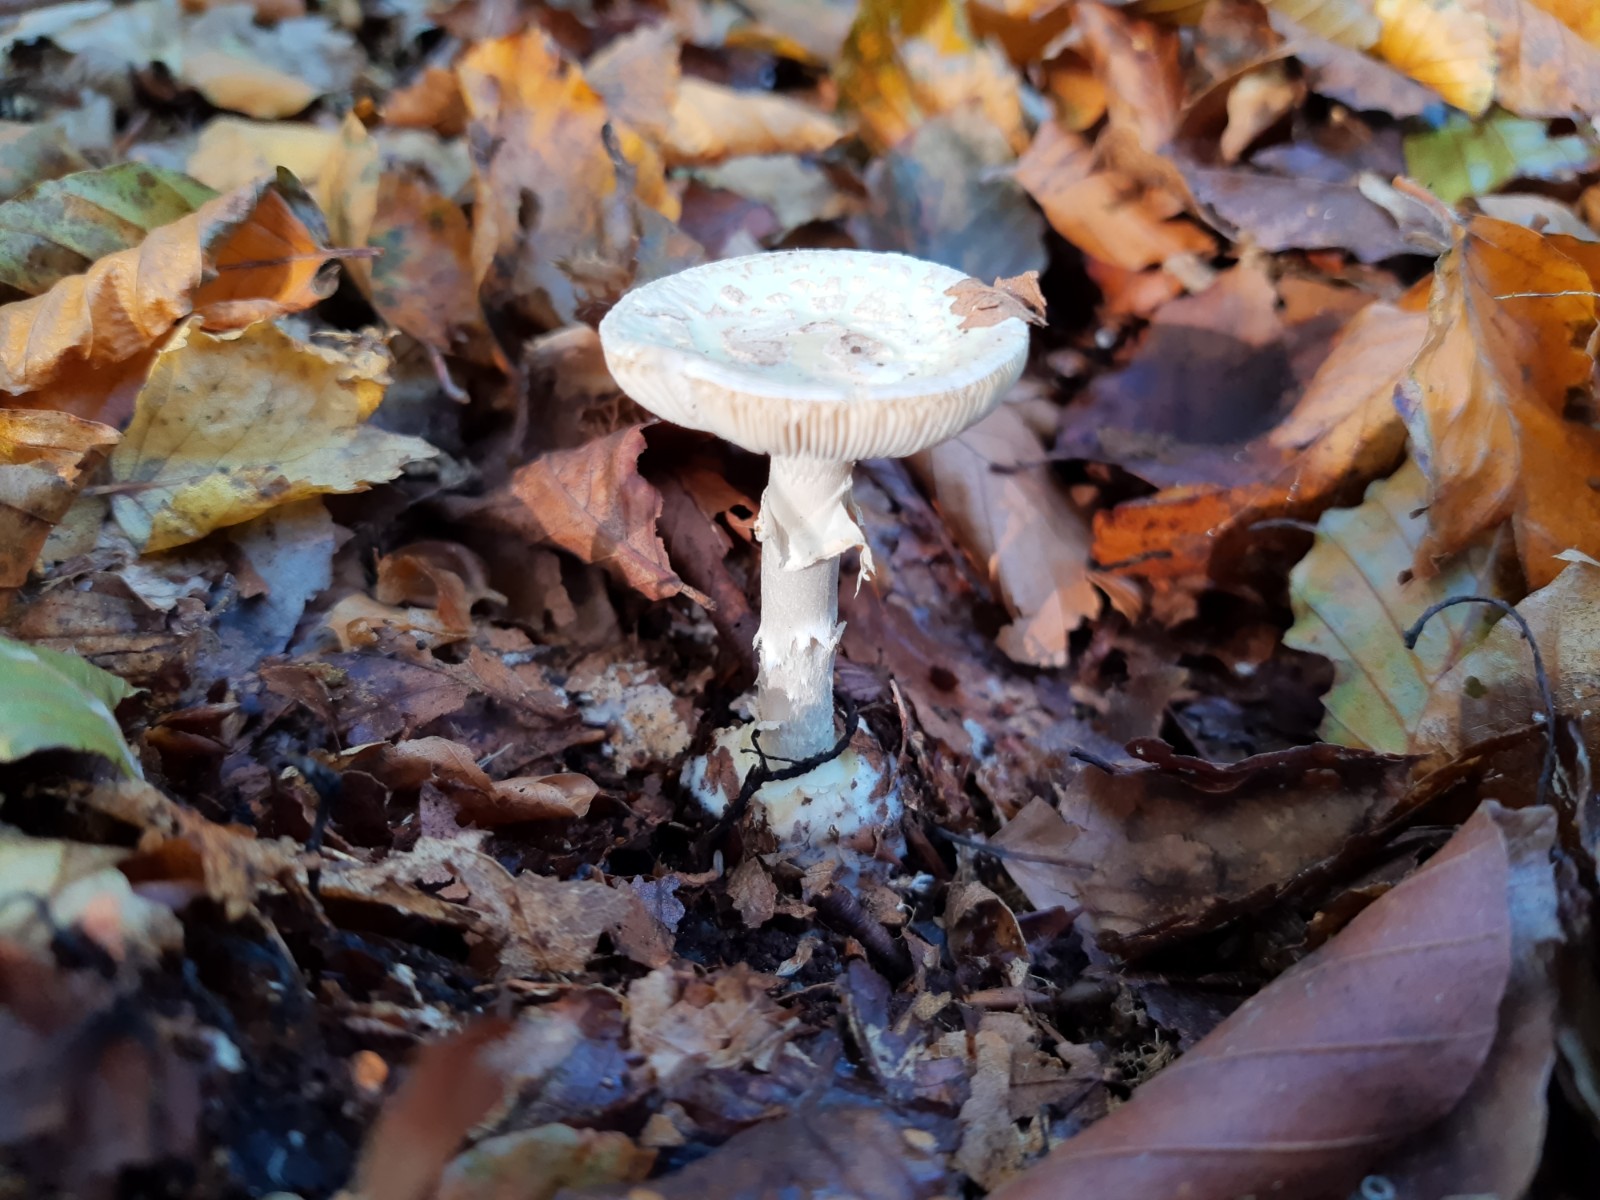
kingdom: Fungi
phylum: Basidiomycota
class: Agaricomycetes
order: Agaricales
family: Amanitaceae
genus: Amanita
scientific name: Amanita citrina
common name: kugleknoldet fluesvamp
